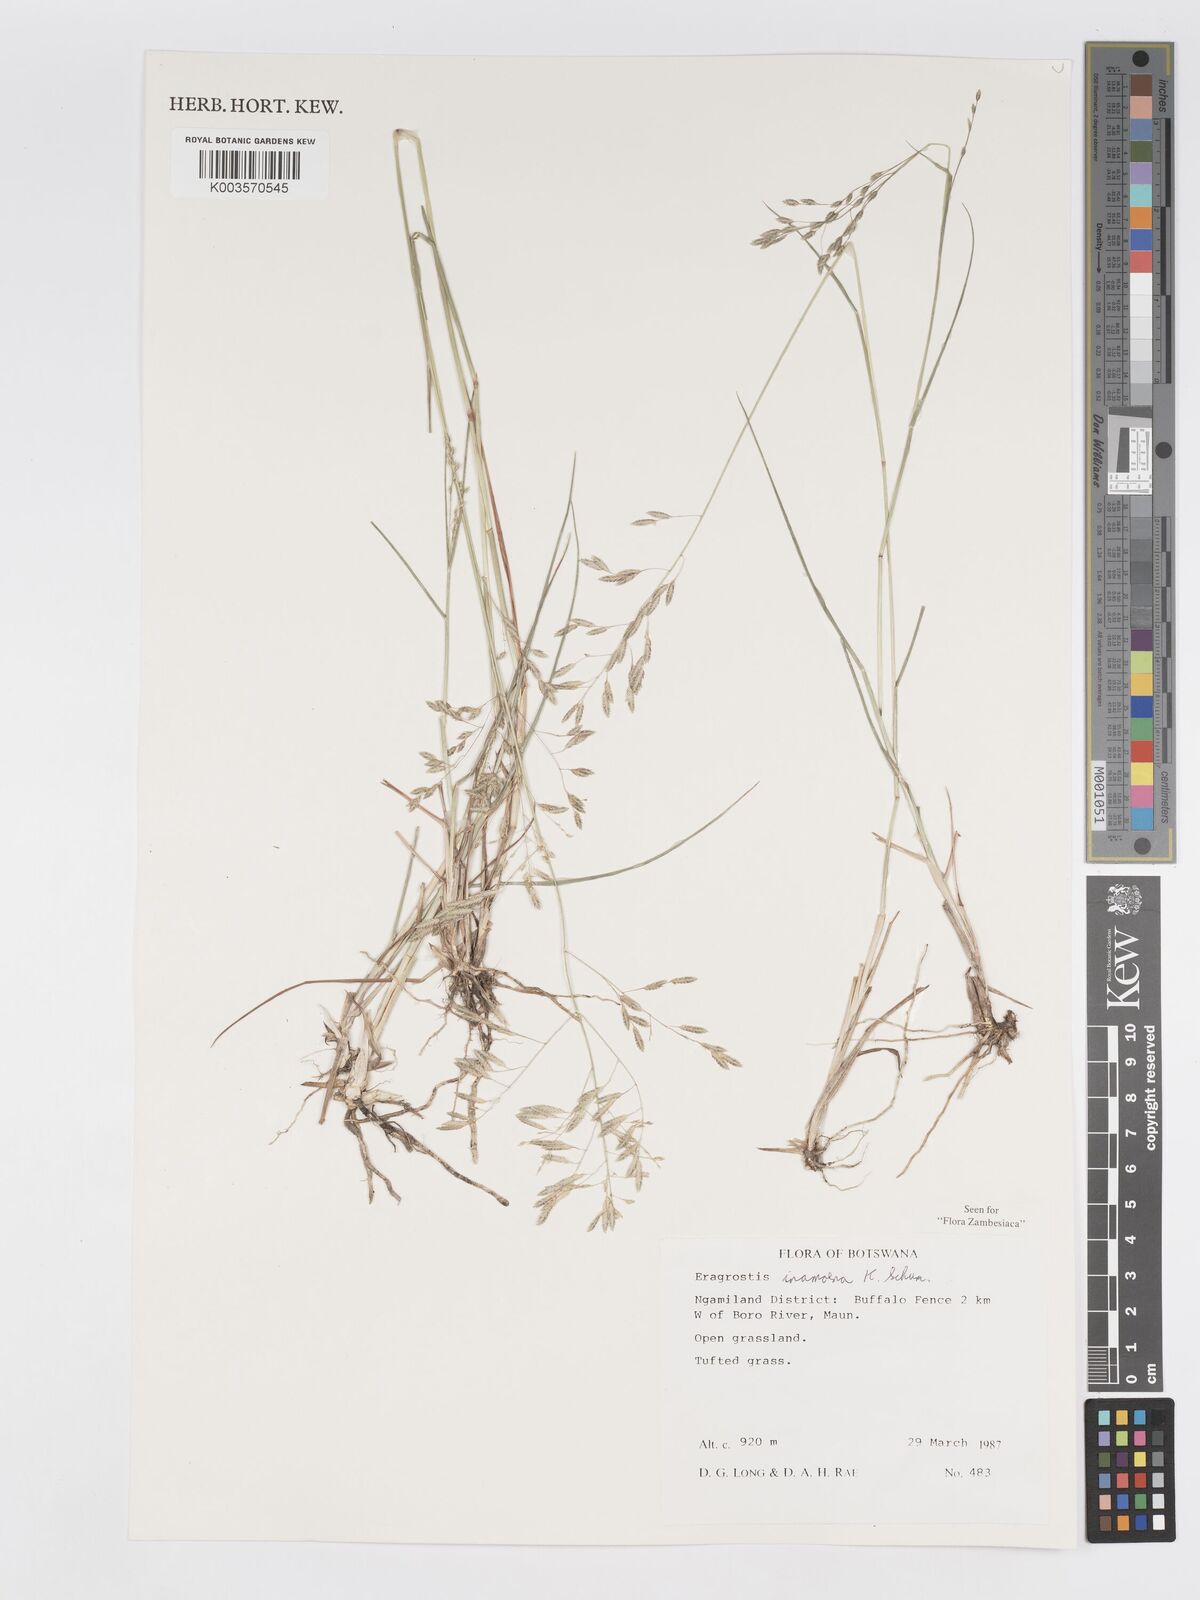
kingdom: Plantae
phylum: Tracheophyta
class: Liliopsida
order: Poales
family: Poaceae
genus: Eragrostis
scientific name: Eragrostis inamoena
